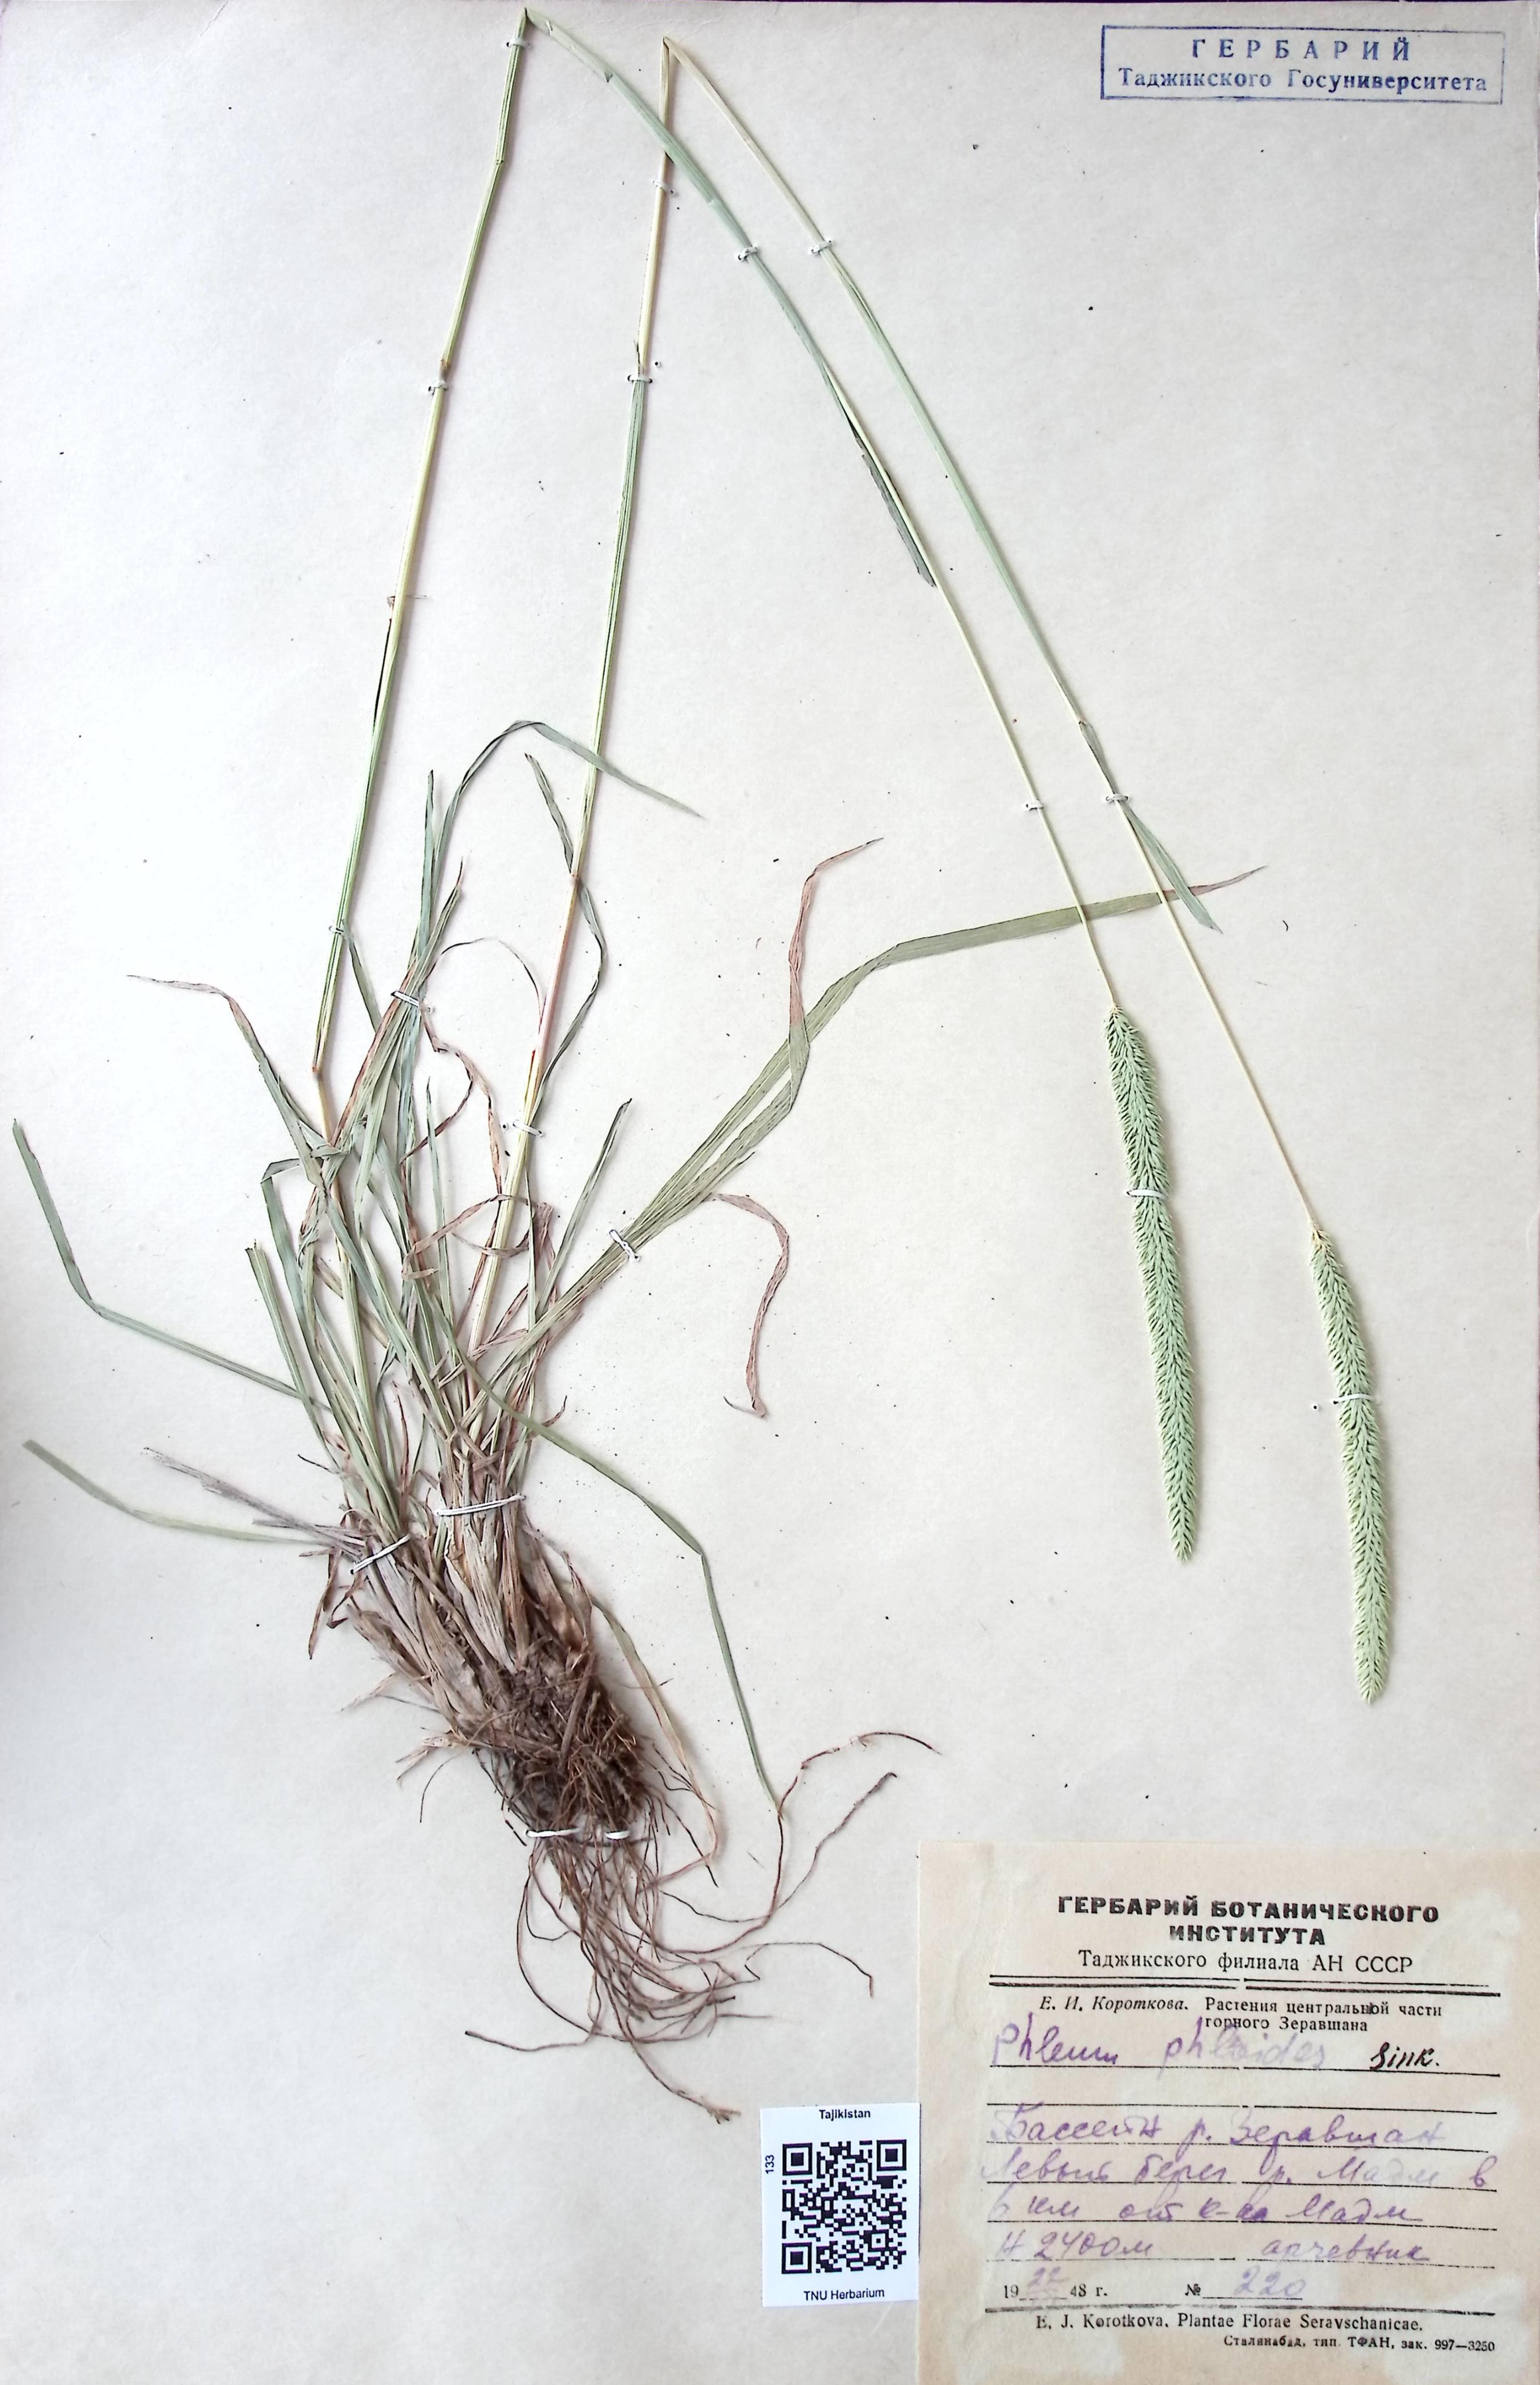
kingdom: Plantae
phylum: Tracheophyta
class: Liliopsida
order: Poales
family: Poaceae
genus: Phleum
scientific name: Phleum
